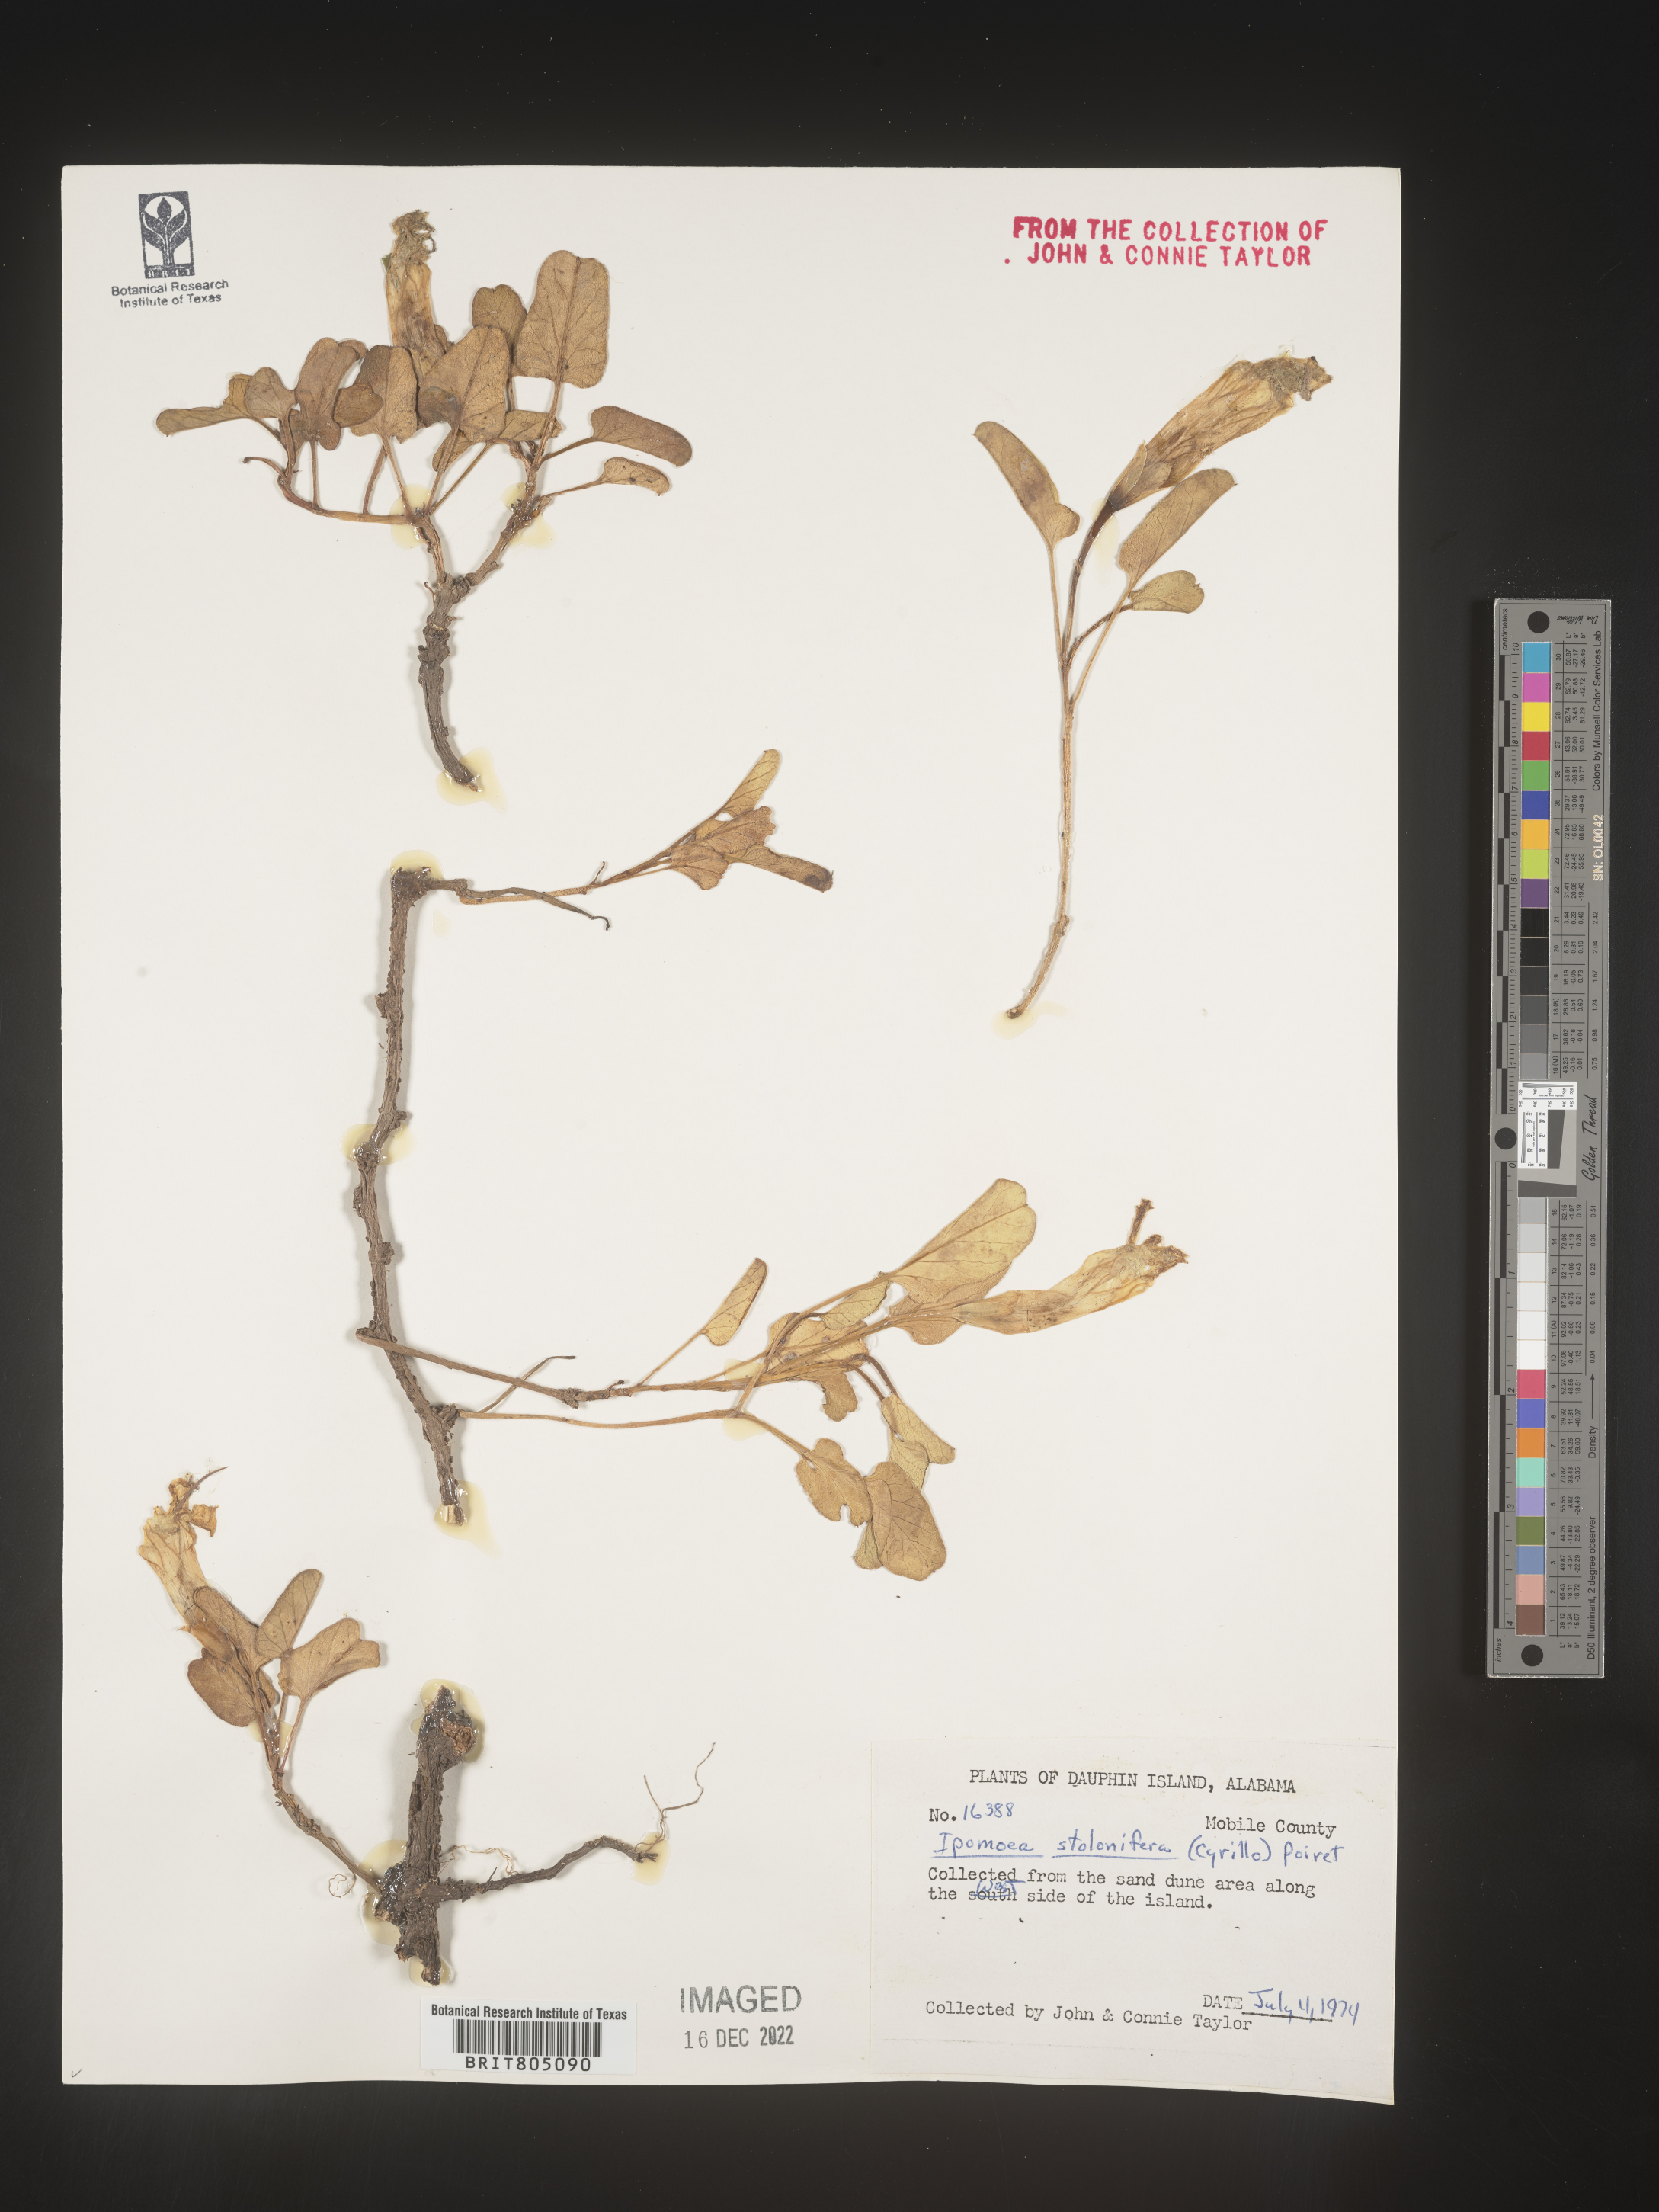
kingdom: Plantae
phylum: Tracheophyta
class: Magnoliopsida
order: Solanales
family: Convolvulaceae
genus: Ipomoea
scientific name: Ipomoea imperati
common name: Fiddle-leaf morning-glory
